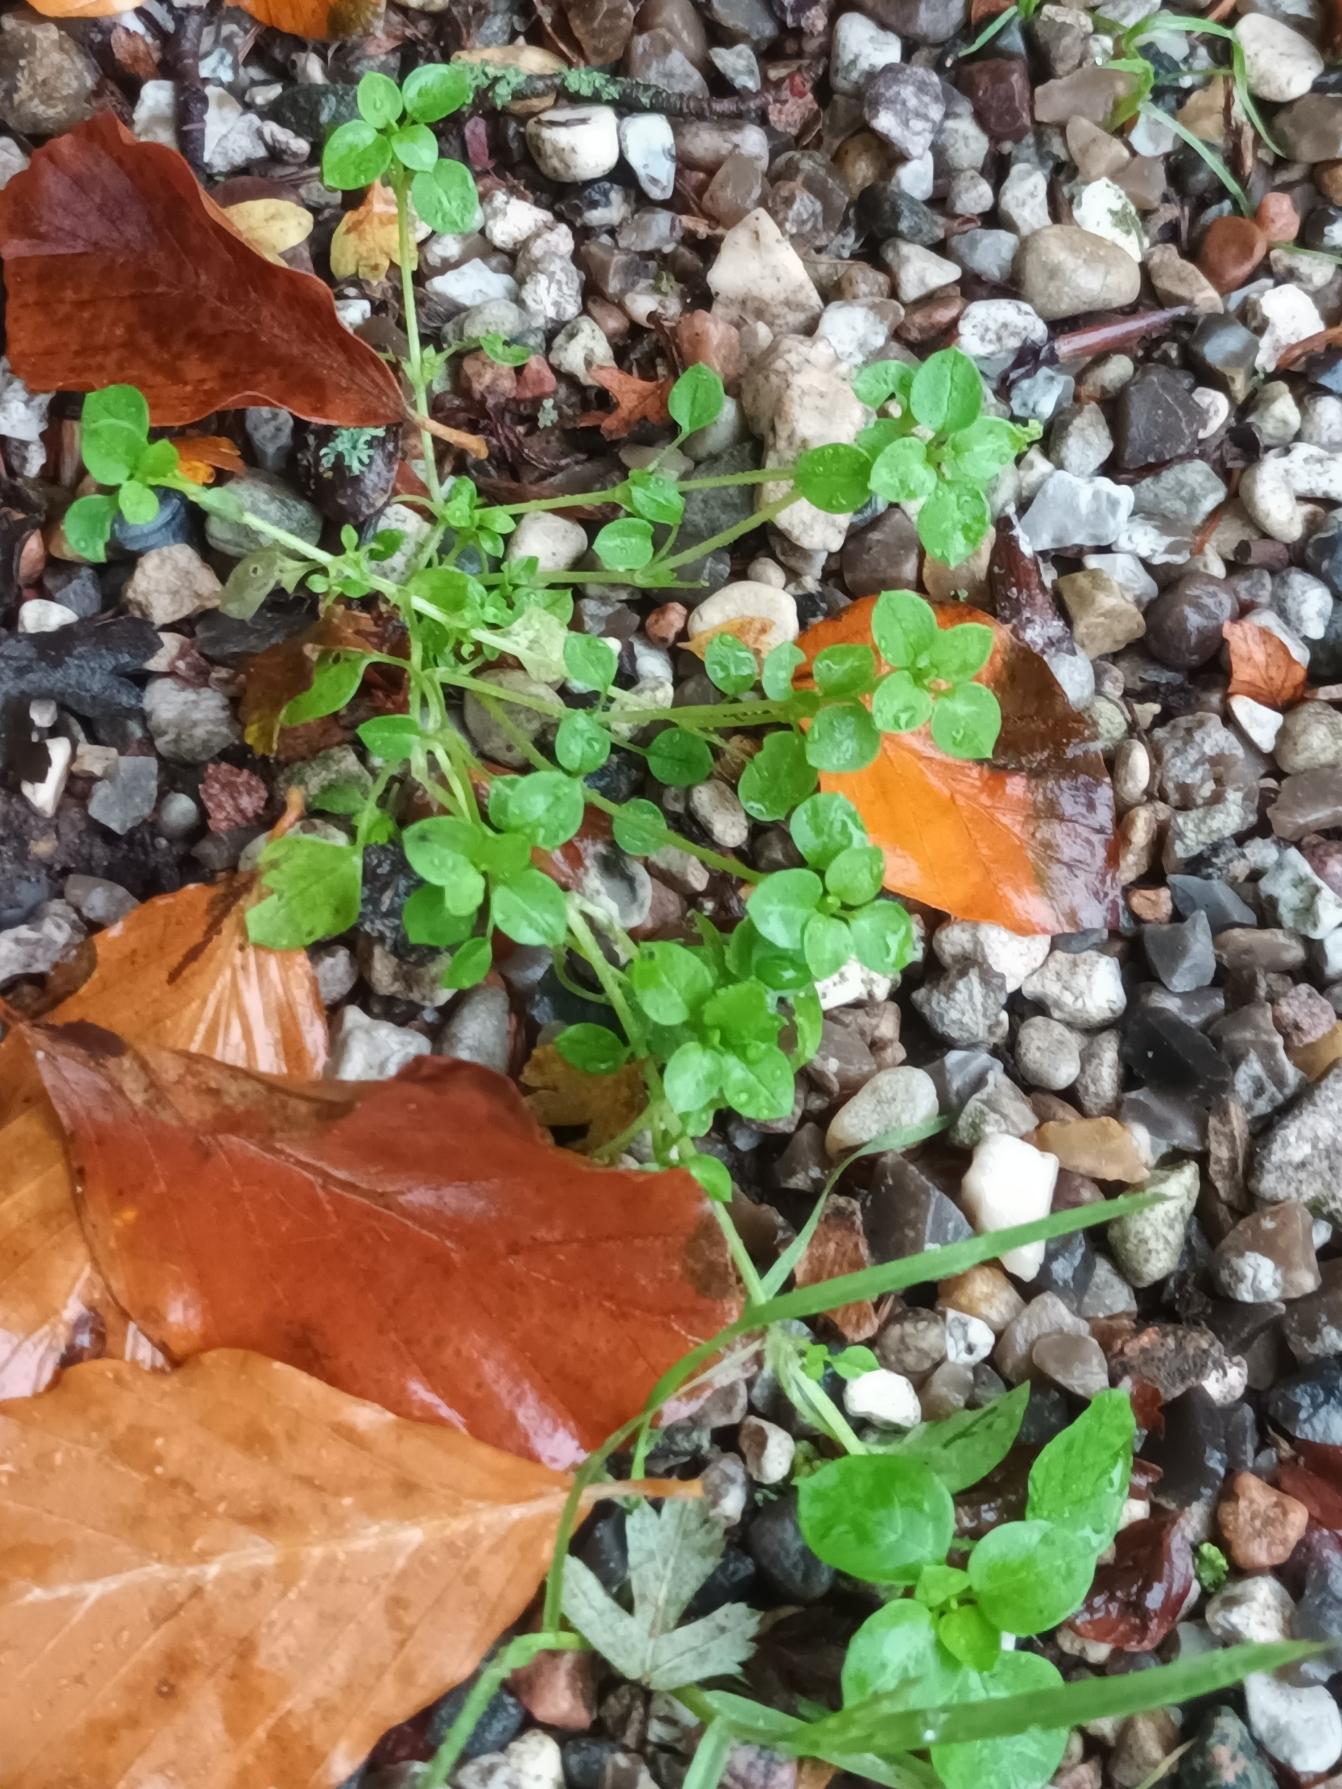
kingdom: Plantae
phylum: Tracheophyta
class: Magnoliopsida
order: Caryophyllales
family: Caryophyllaceae
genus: Stellaria
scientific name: Stellaria media
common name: Almindelig fuglegræs
